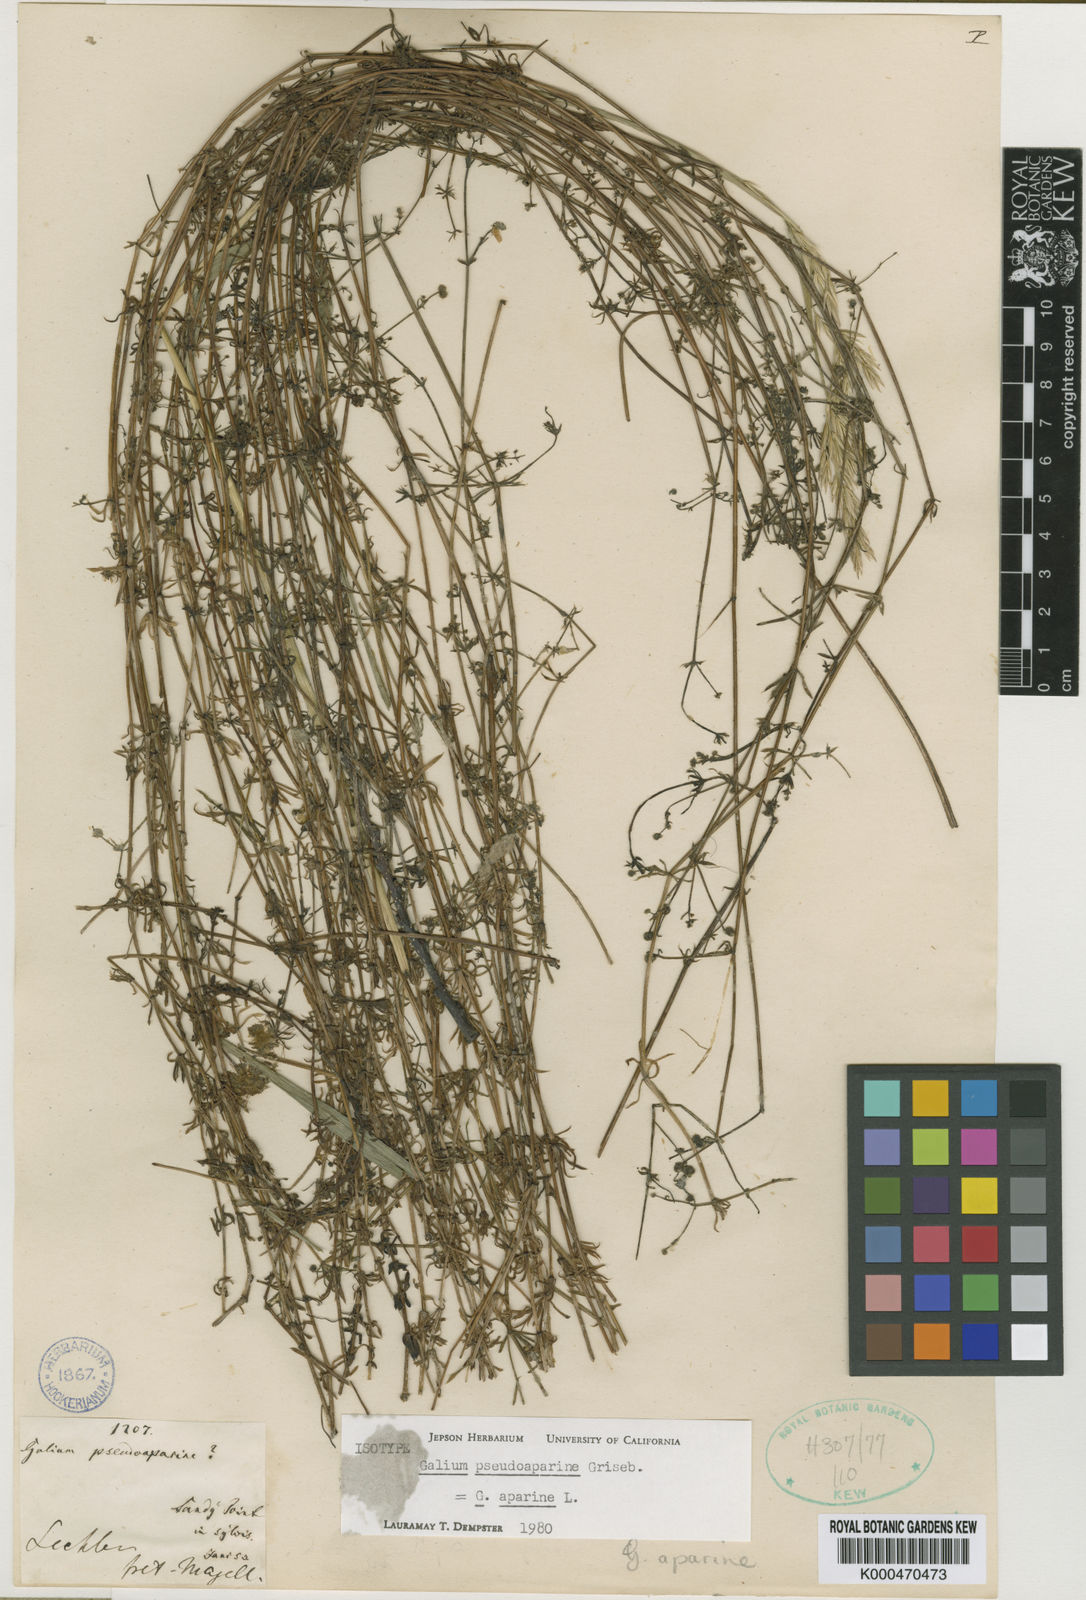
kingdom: Plantae
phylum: Tracheophyta
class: Magnoliopsida
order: Gentianales
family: Rubiaceae
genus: Galium
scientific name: Galium aparine
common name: Cleavers
